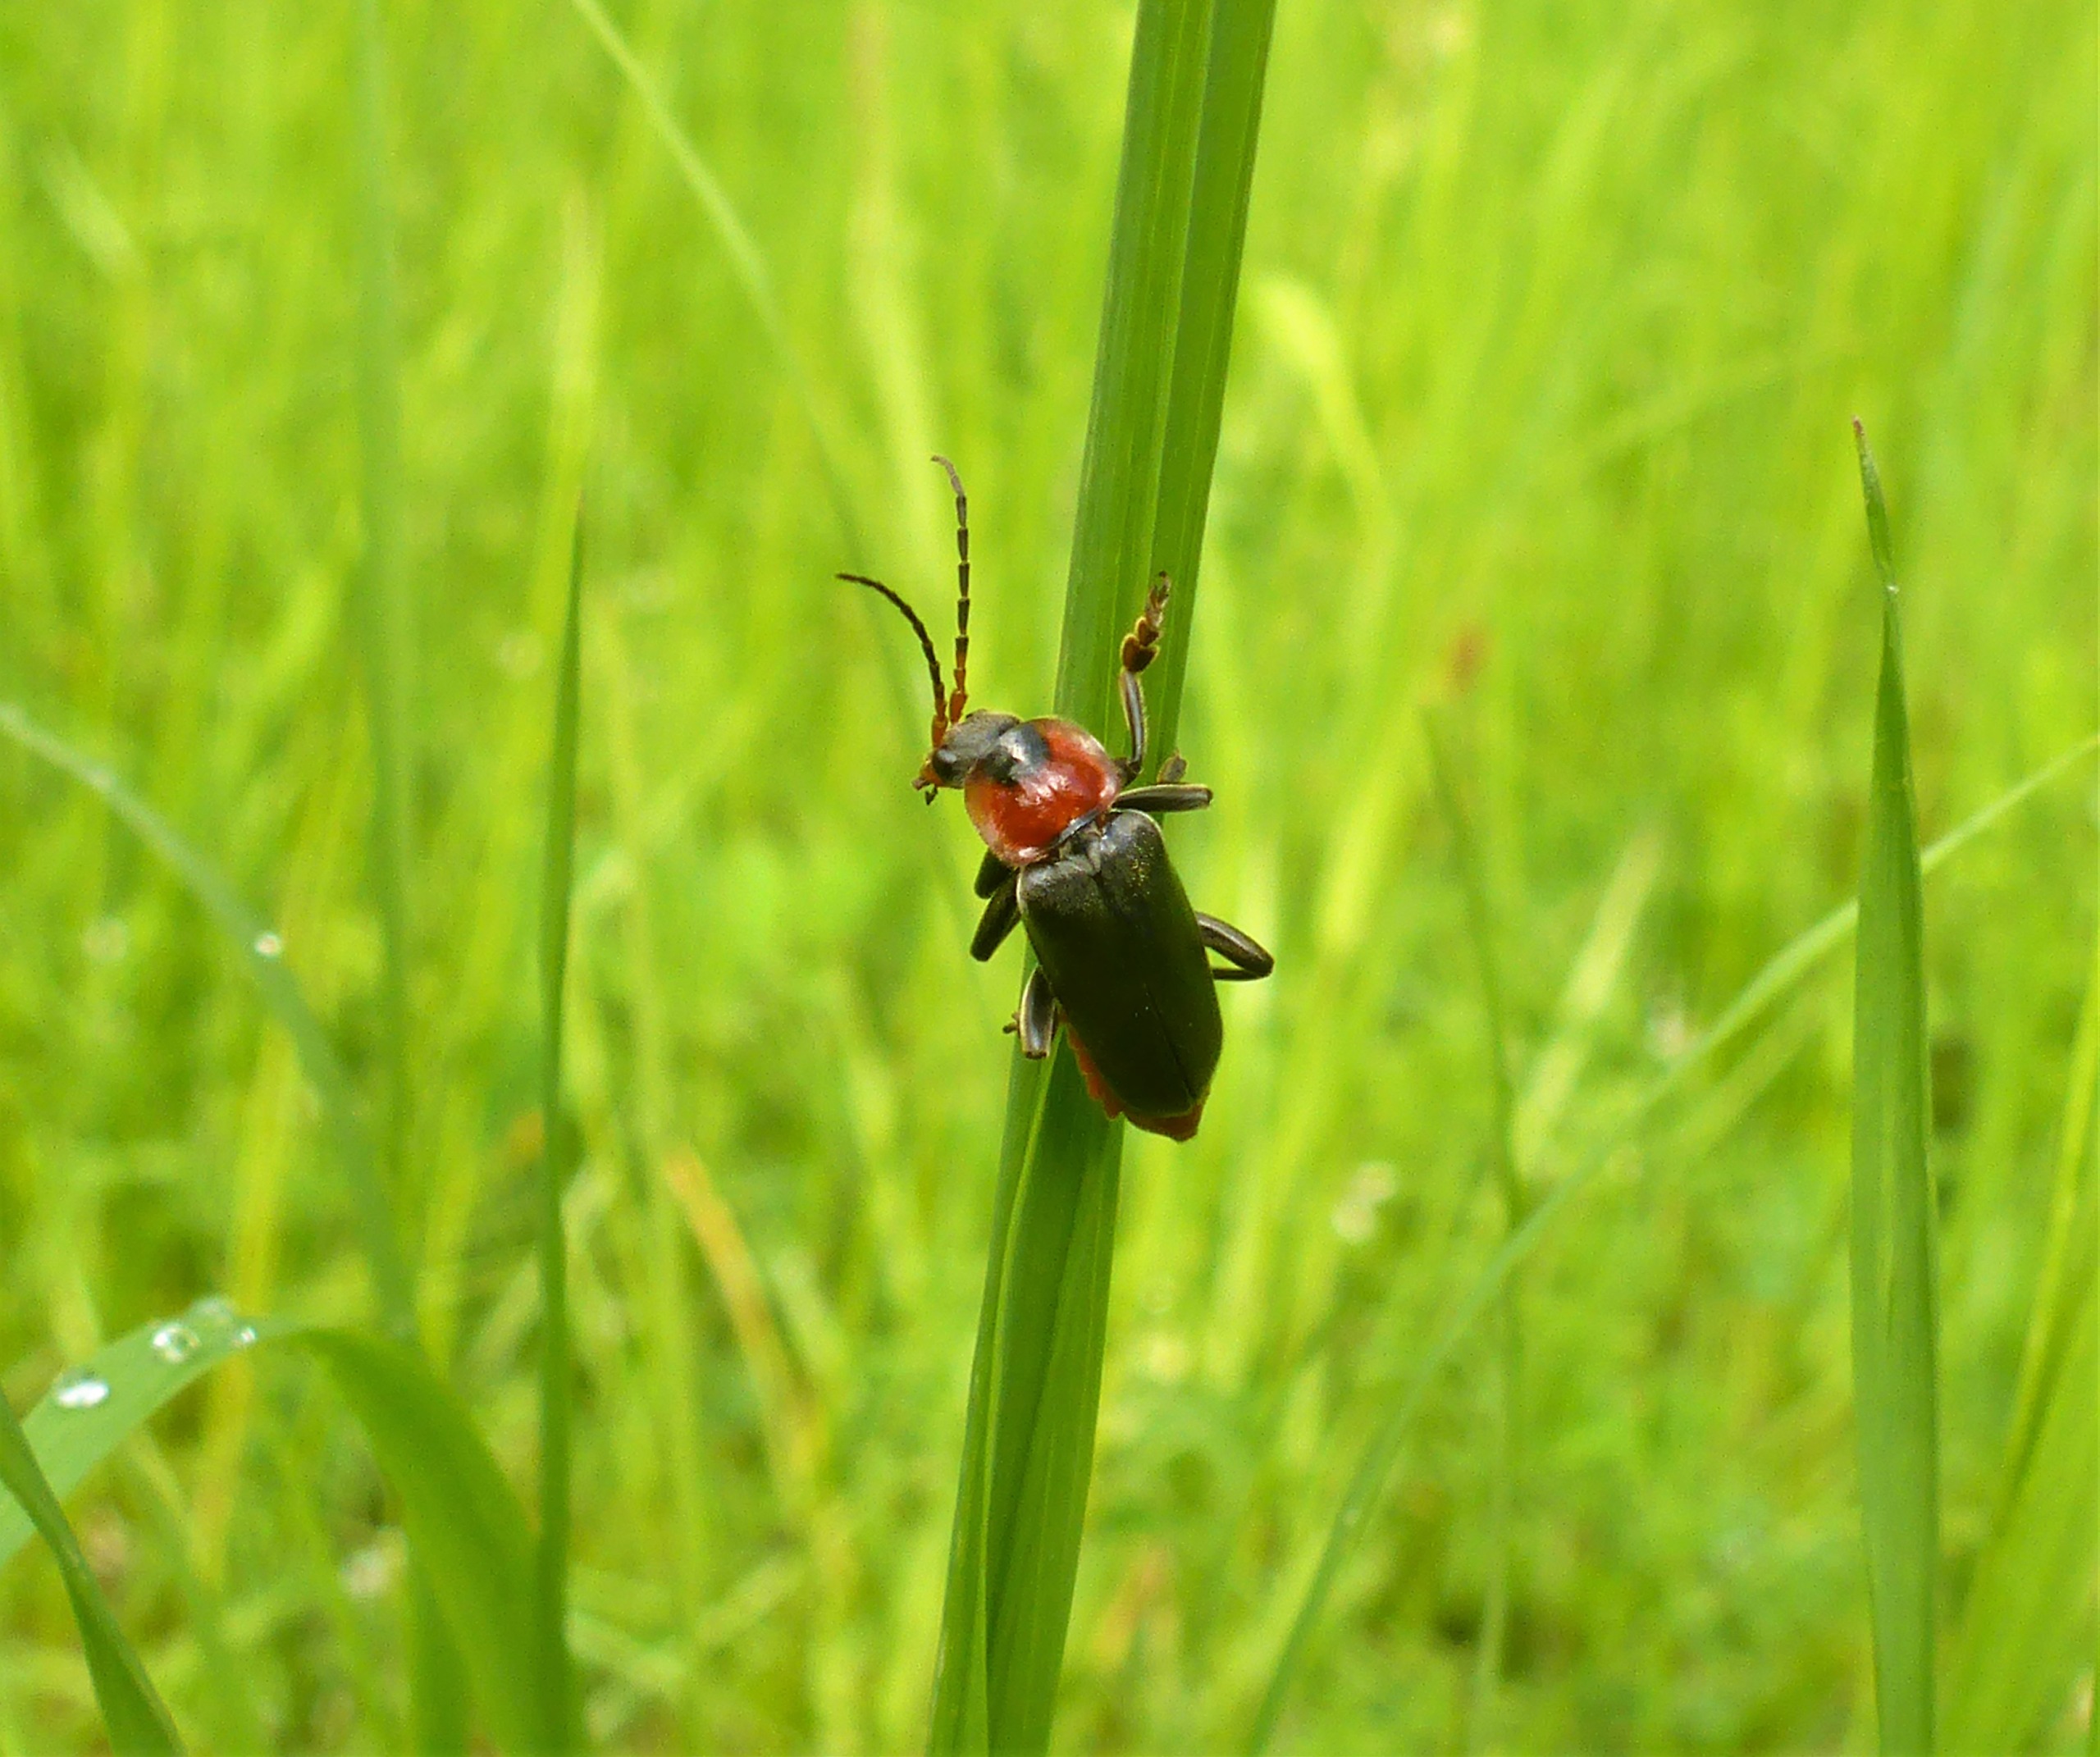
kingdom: Animalia
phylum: Arthropoda
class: Insecta
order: Coleoptera
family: Cantharidae
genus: Cantharis
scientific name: Cantharis fusca
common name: Stor blødvinge
